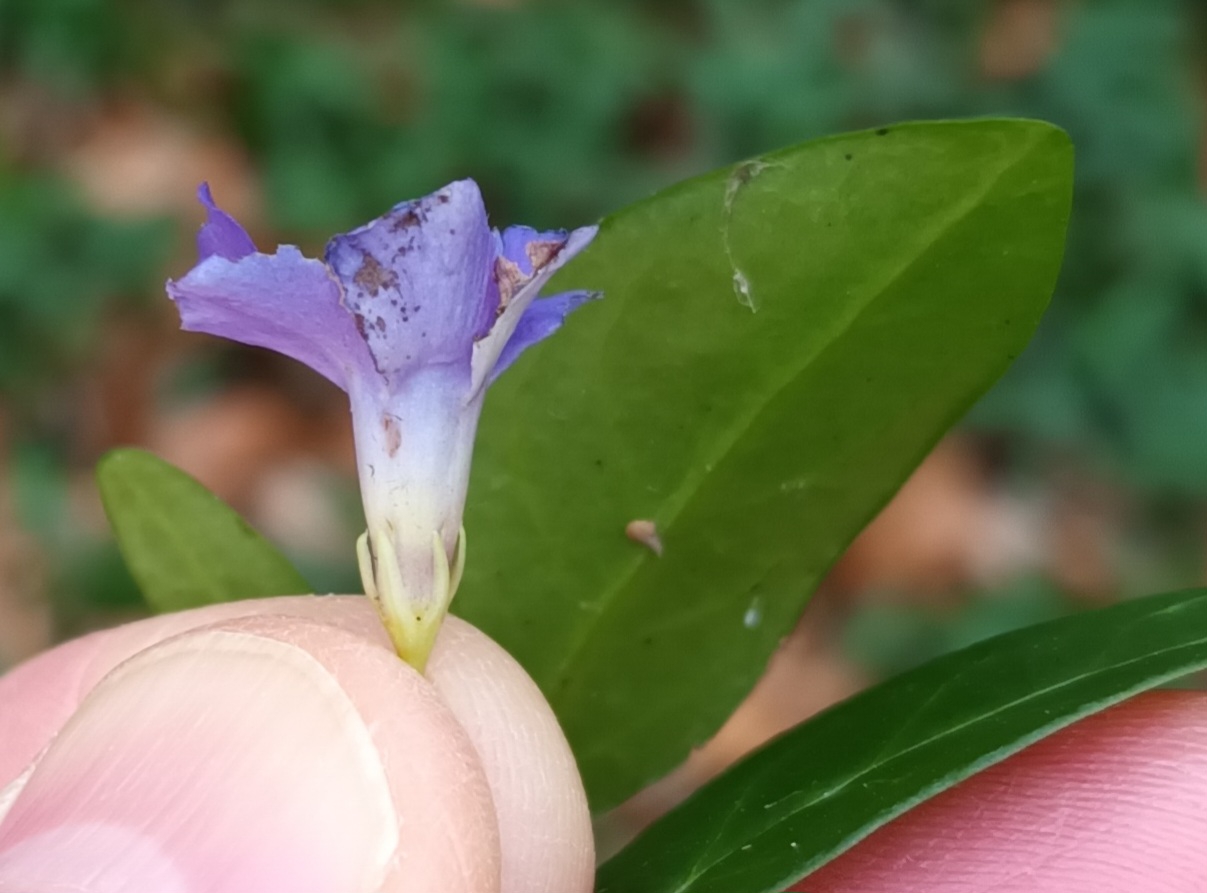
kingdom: Plantae
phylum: Tracheophyta
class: Magnoliopsida
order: Gentianales
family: Apocynaceae
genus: Vinca
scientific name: Vinca minor
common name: Liden singrøn
